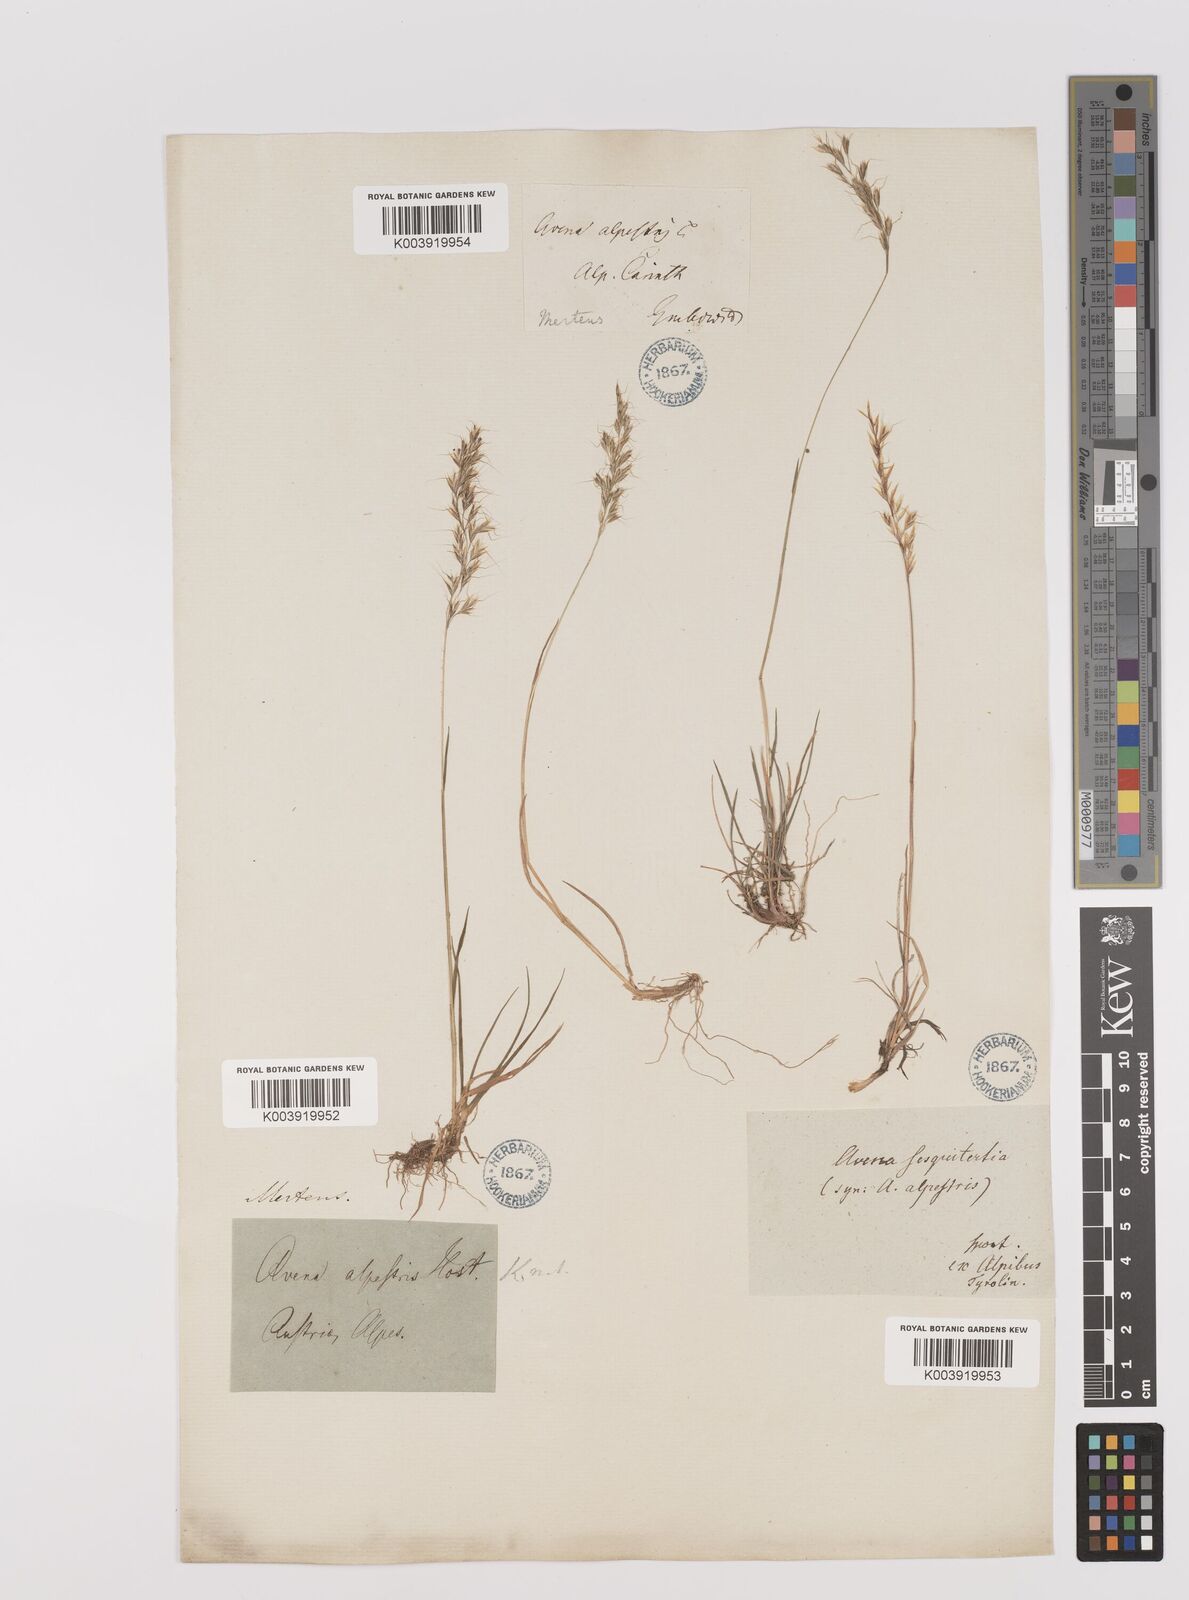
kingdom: Plantae
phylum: Tracheophyta
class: Liliopsida
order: Poales
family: Poaceae
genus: Trisetum
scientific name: Trisetum alpestre
